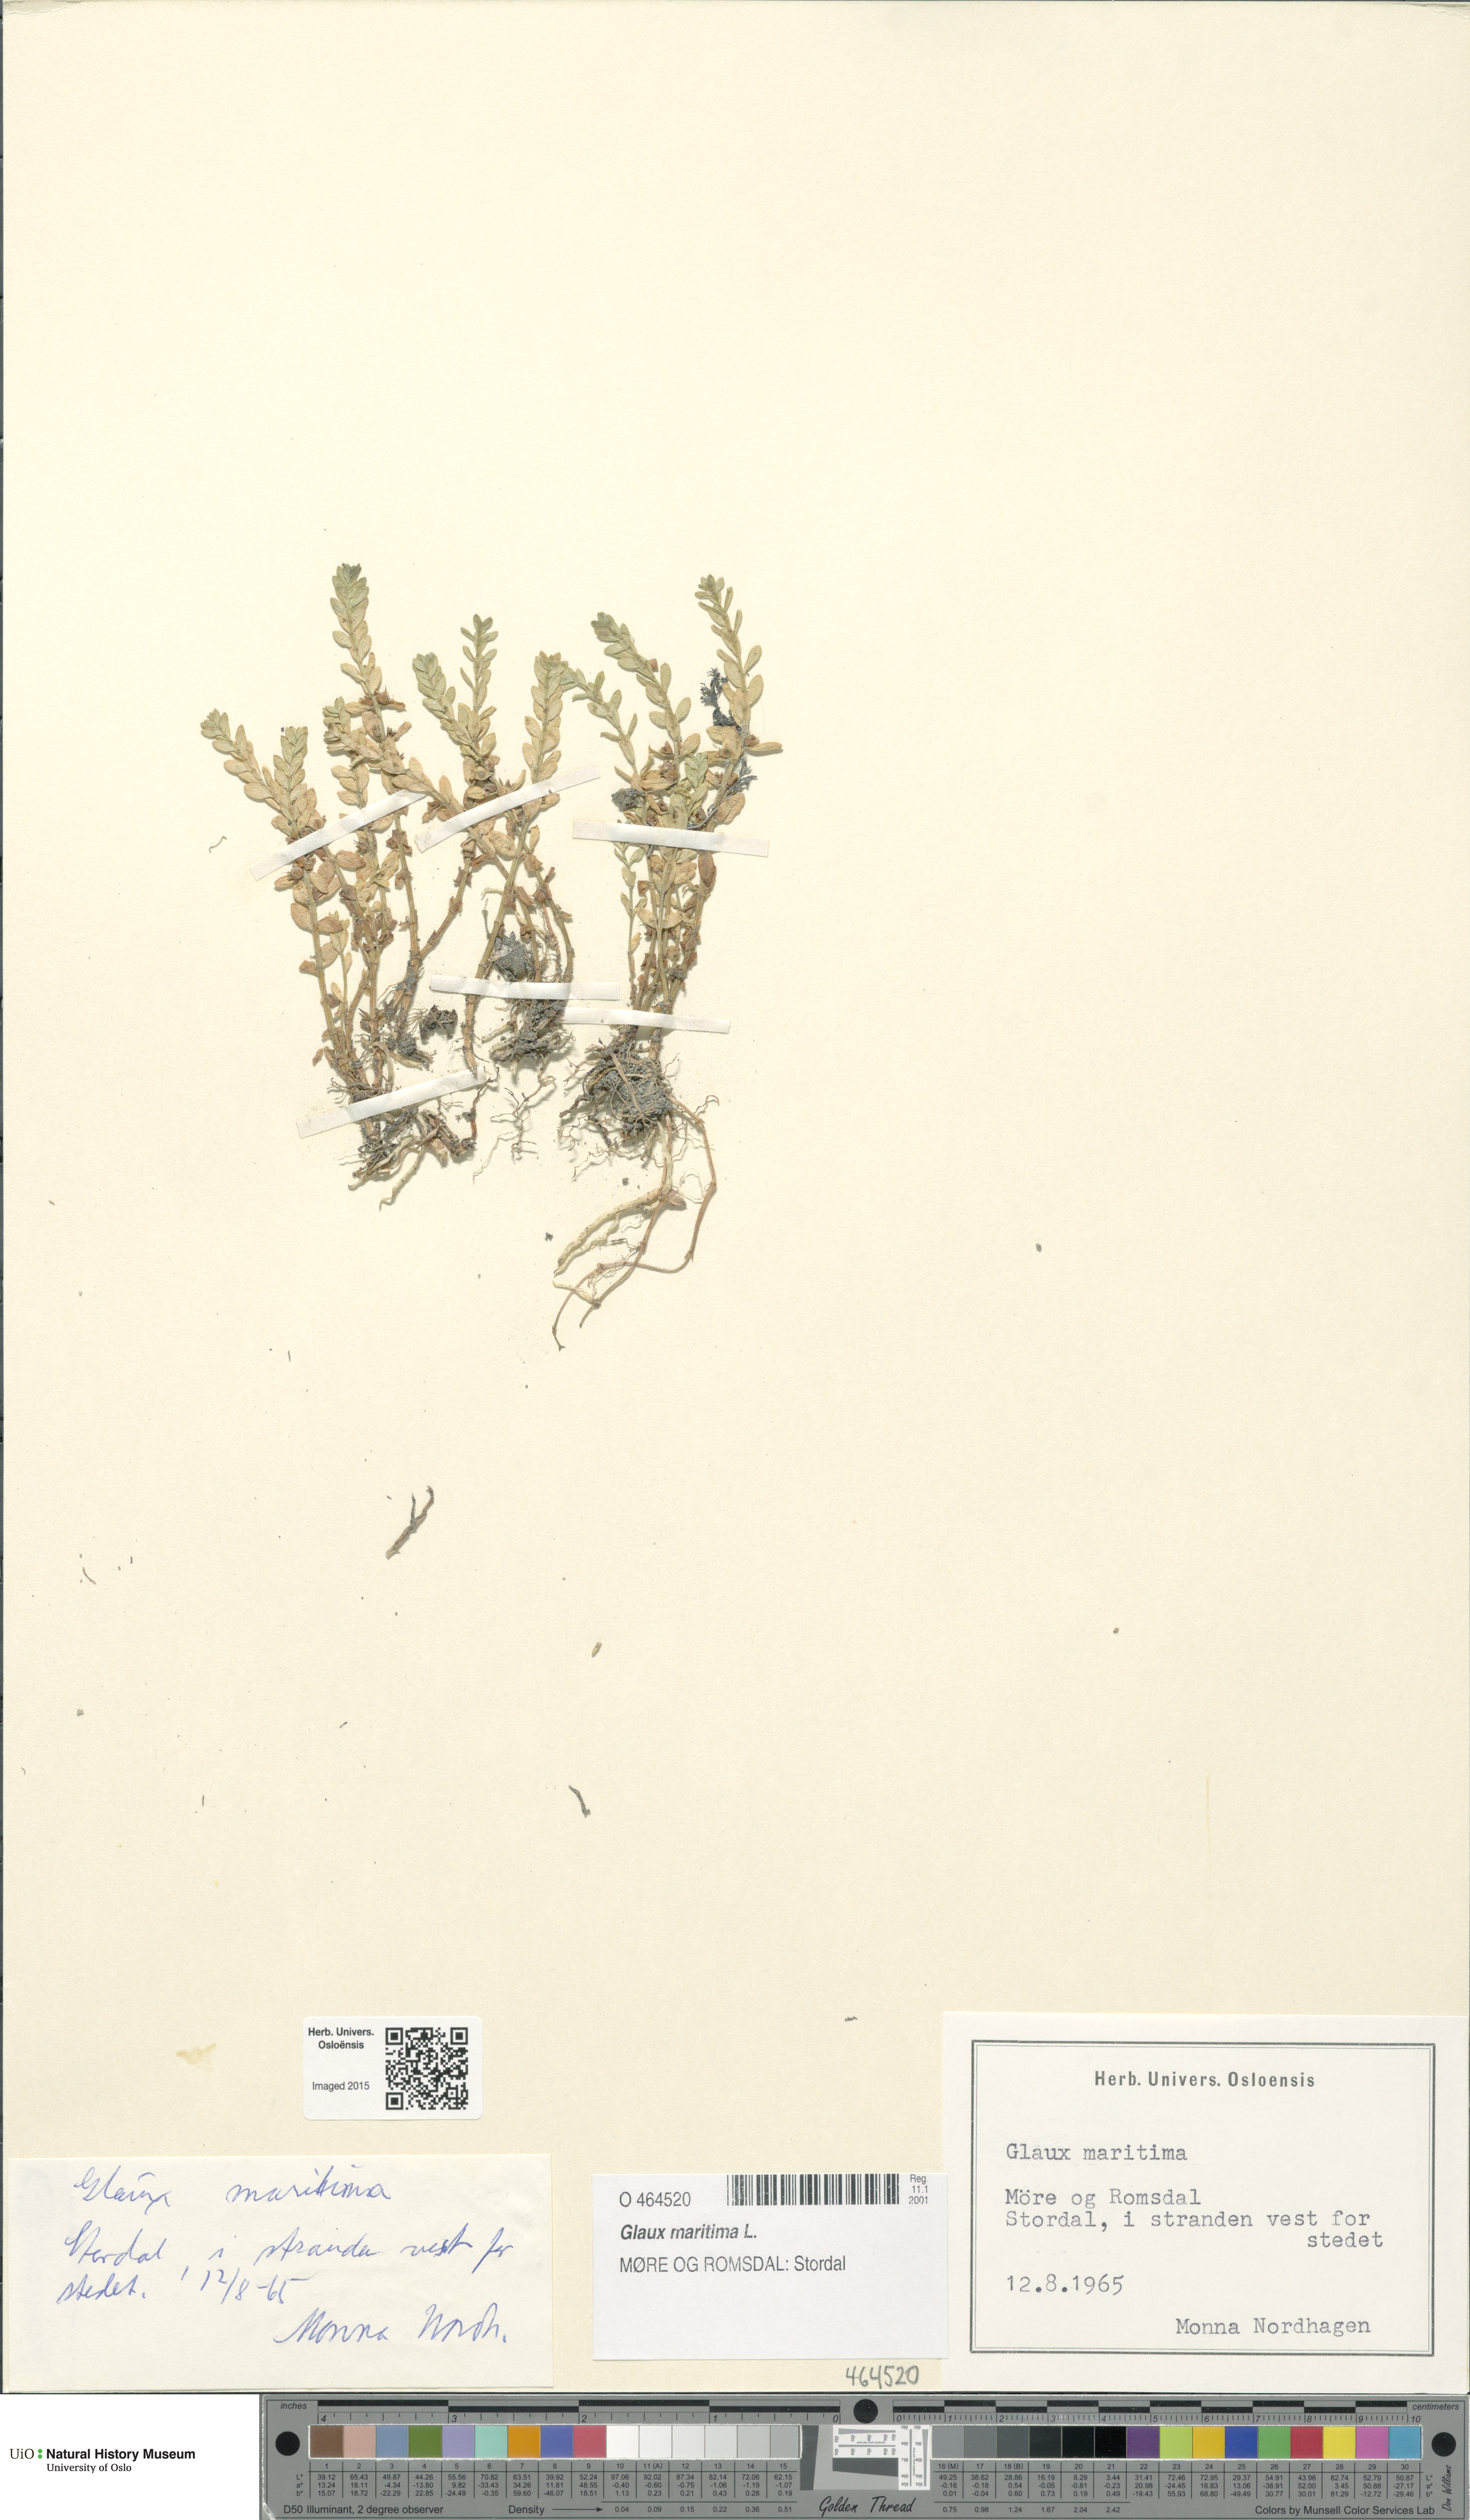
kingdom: Plantae
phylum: Tracheophyta
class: Magnoliopsida
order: Ericales
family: Primulaceae
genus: Lysimachia
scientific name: Lysimachia maritima
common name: Sea milkwort
